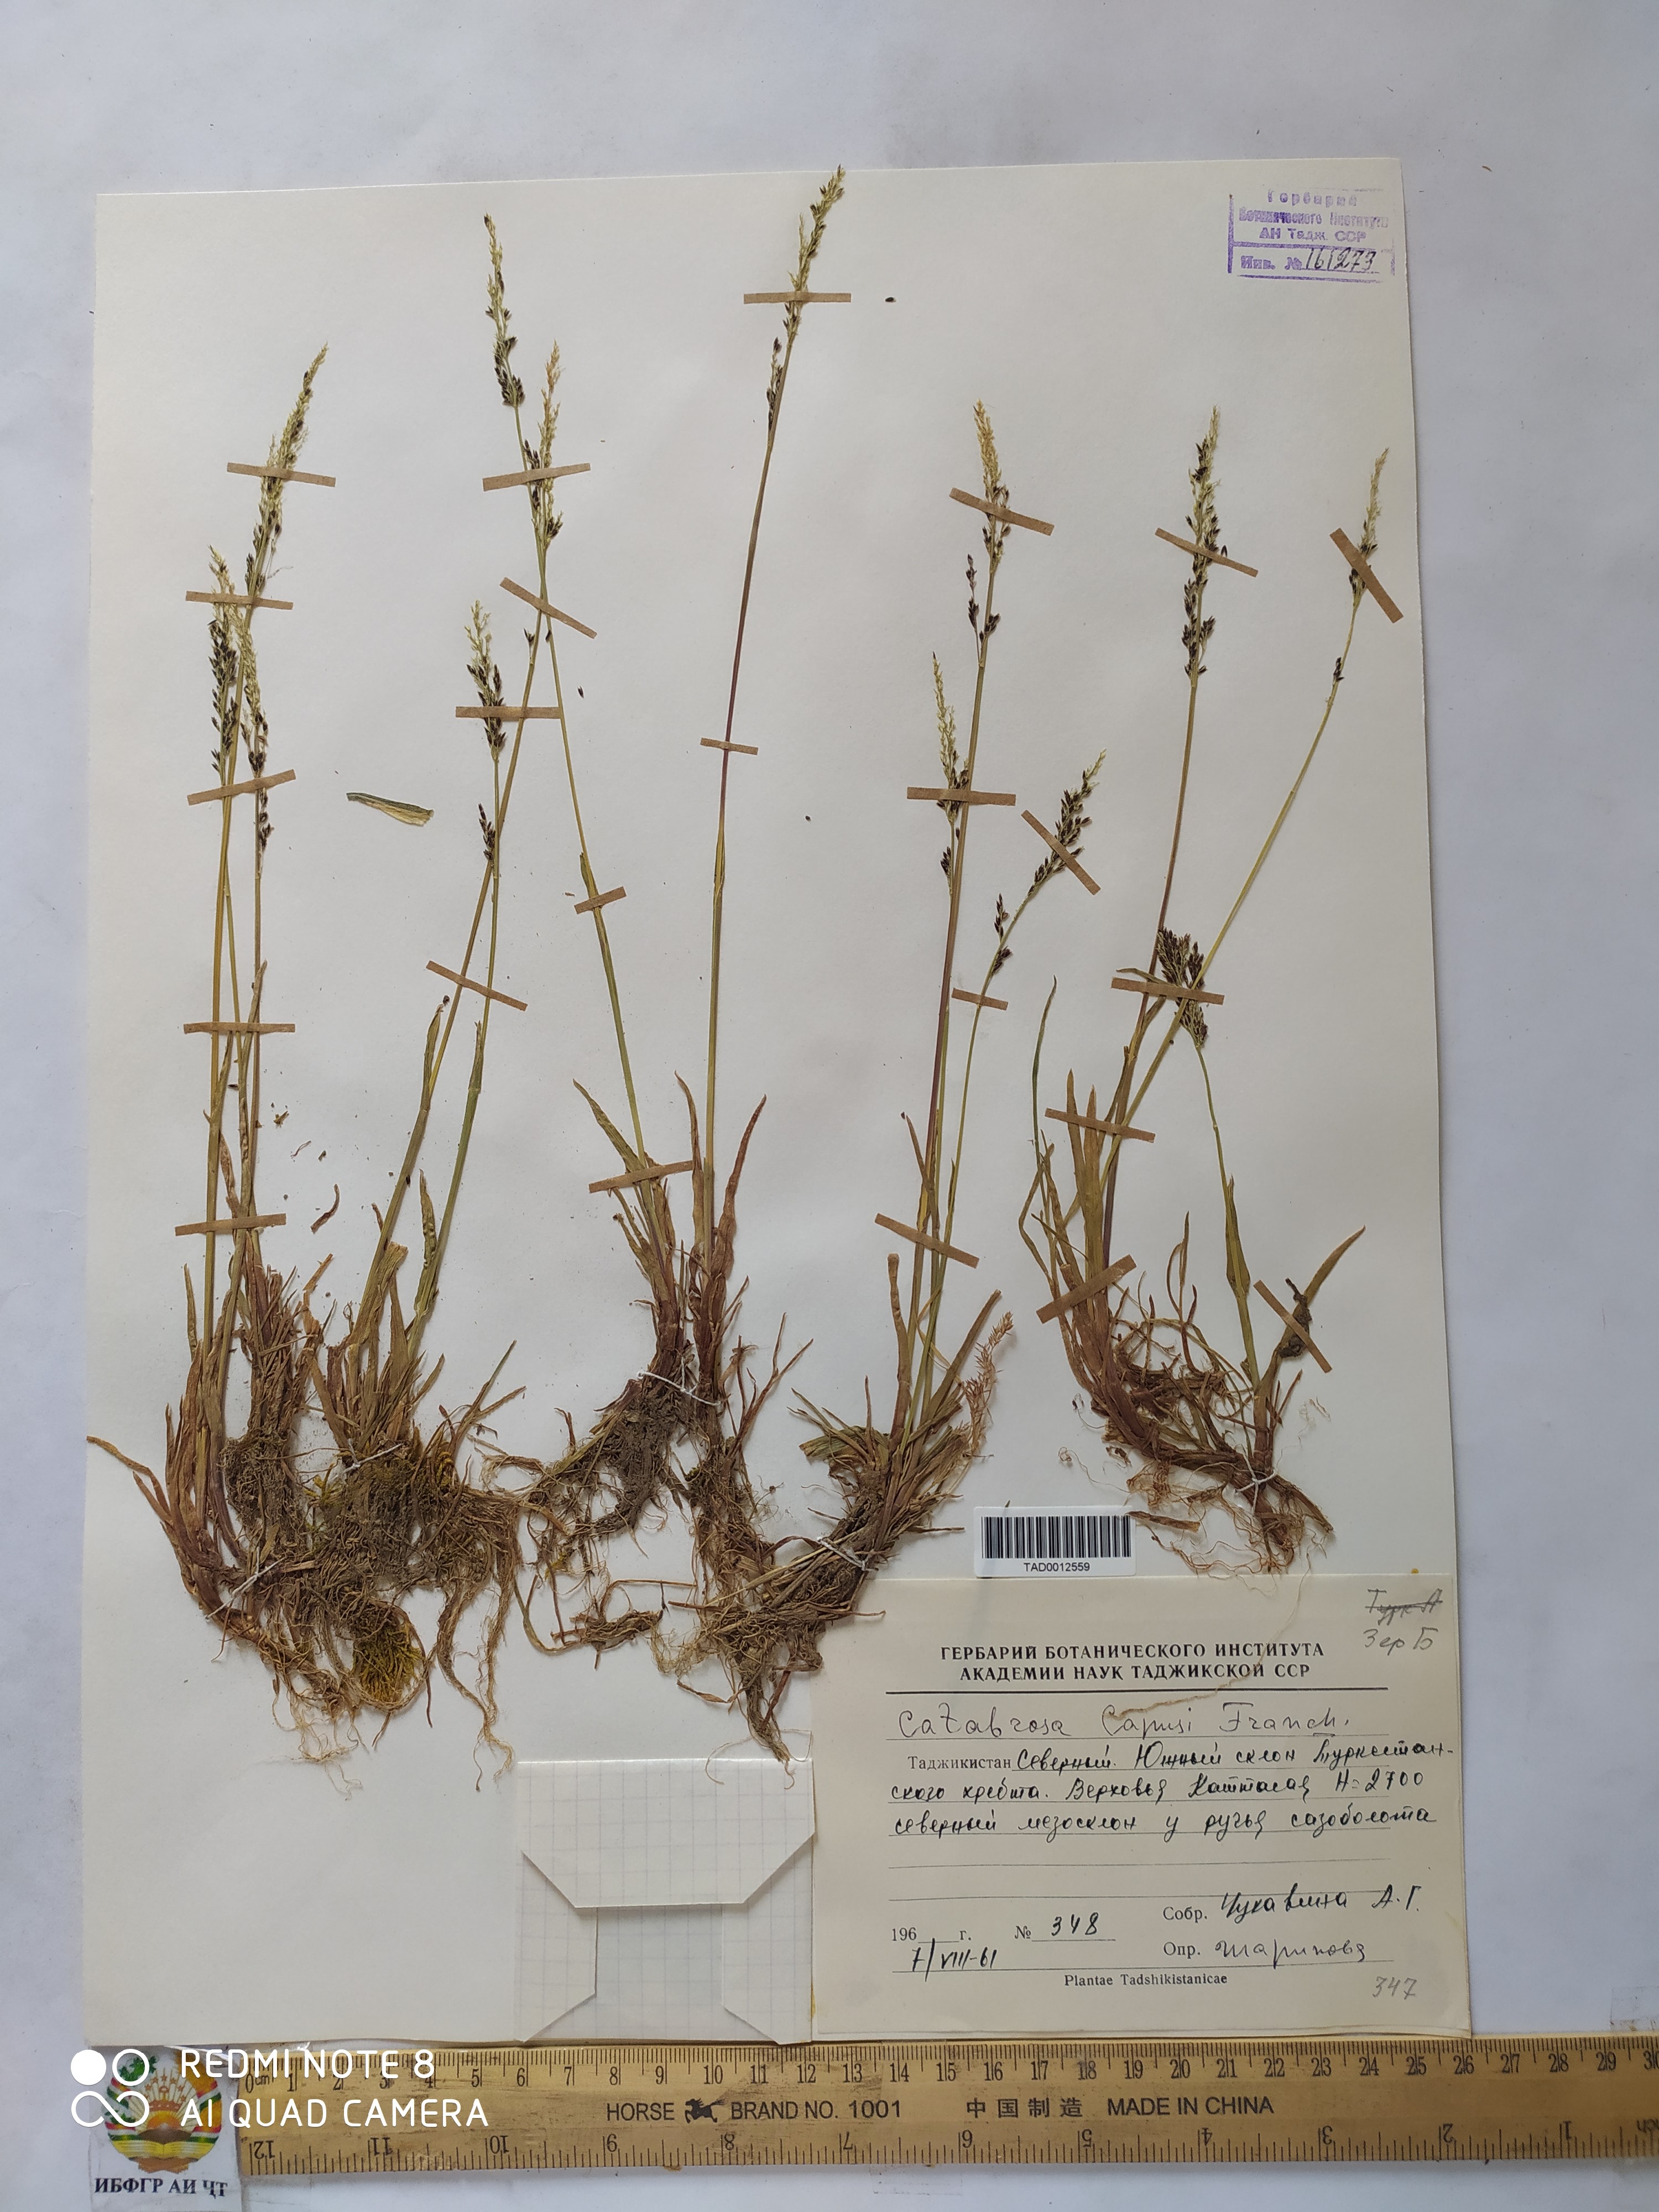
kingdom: Plantae
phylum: Tracheophyta
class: Liliopsida
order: Poales
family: Poaceae
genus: Catabrosa
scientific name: Catabrosa aquatica
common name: Whorl-grass
